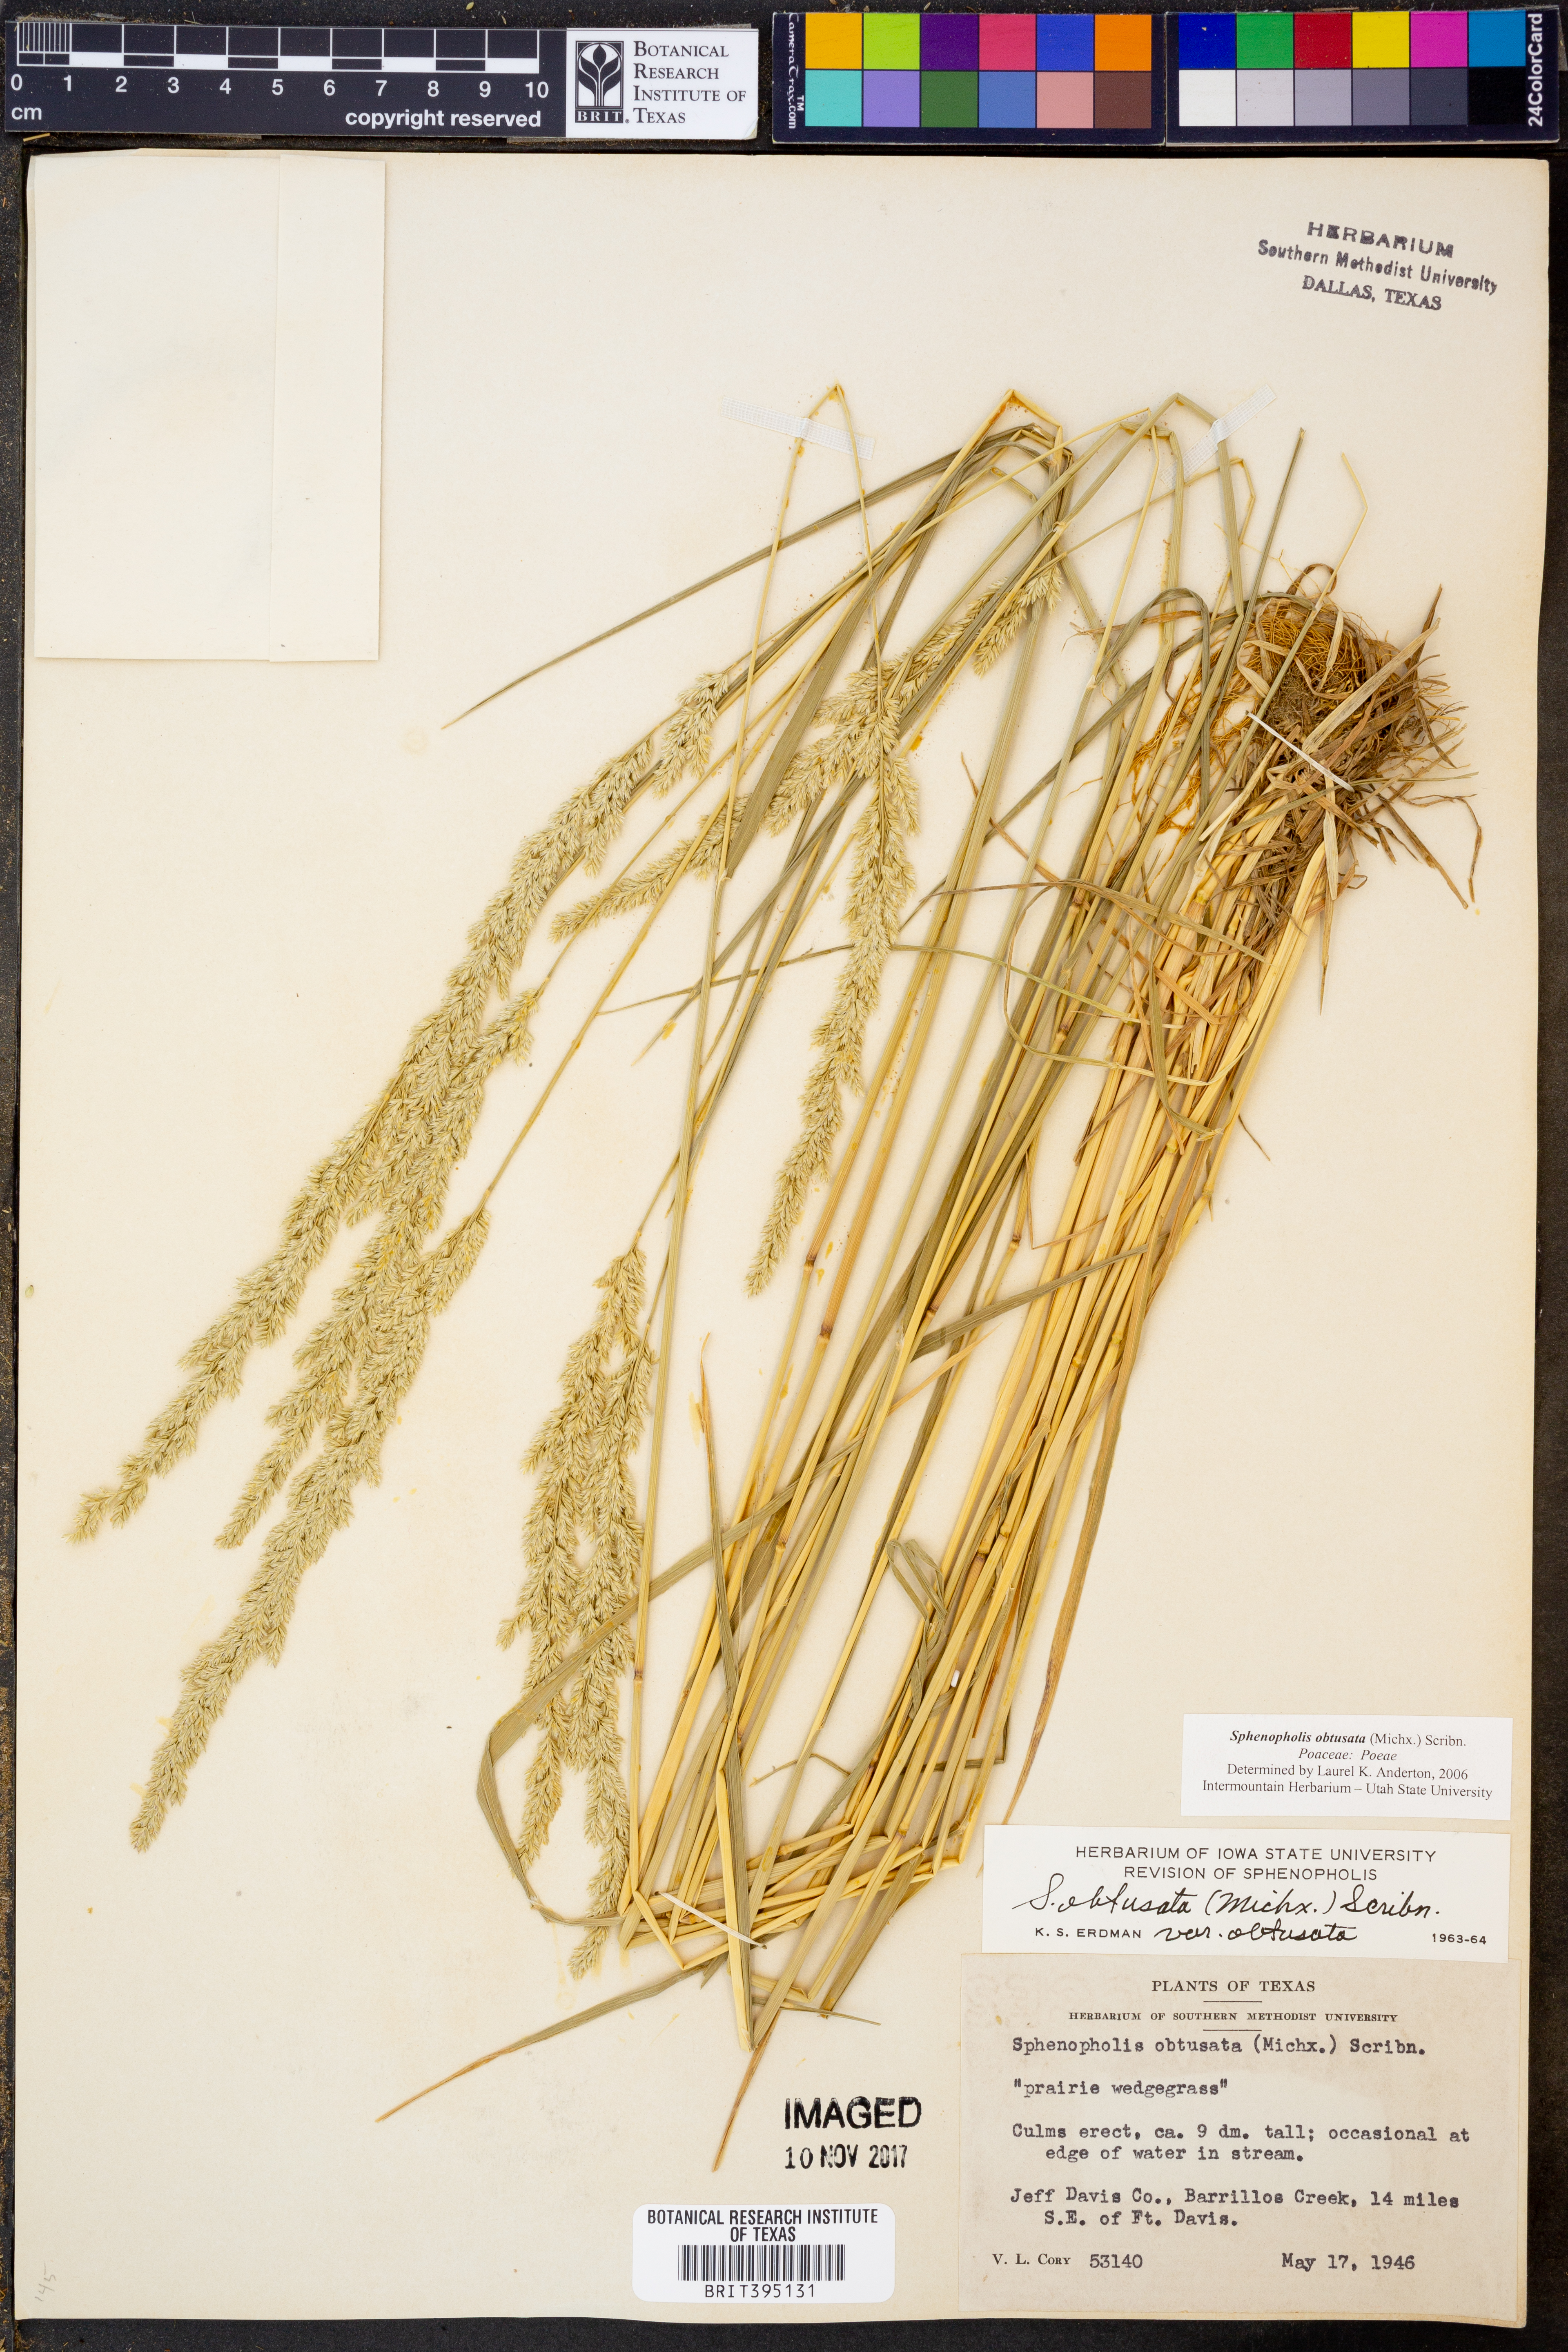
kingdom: Plantae
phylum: Tracheophyta
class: Liliopsida
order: Poales
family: Poaceae
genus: Sphenopholis
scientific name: Sphenopholis obtusata
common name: Prairie grass
